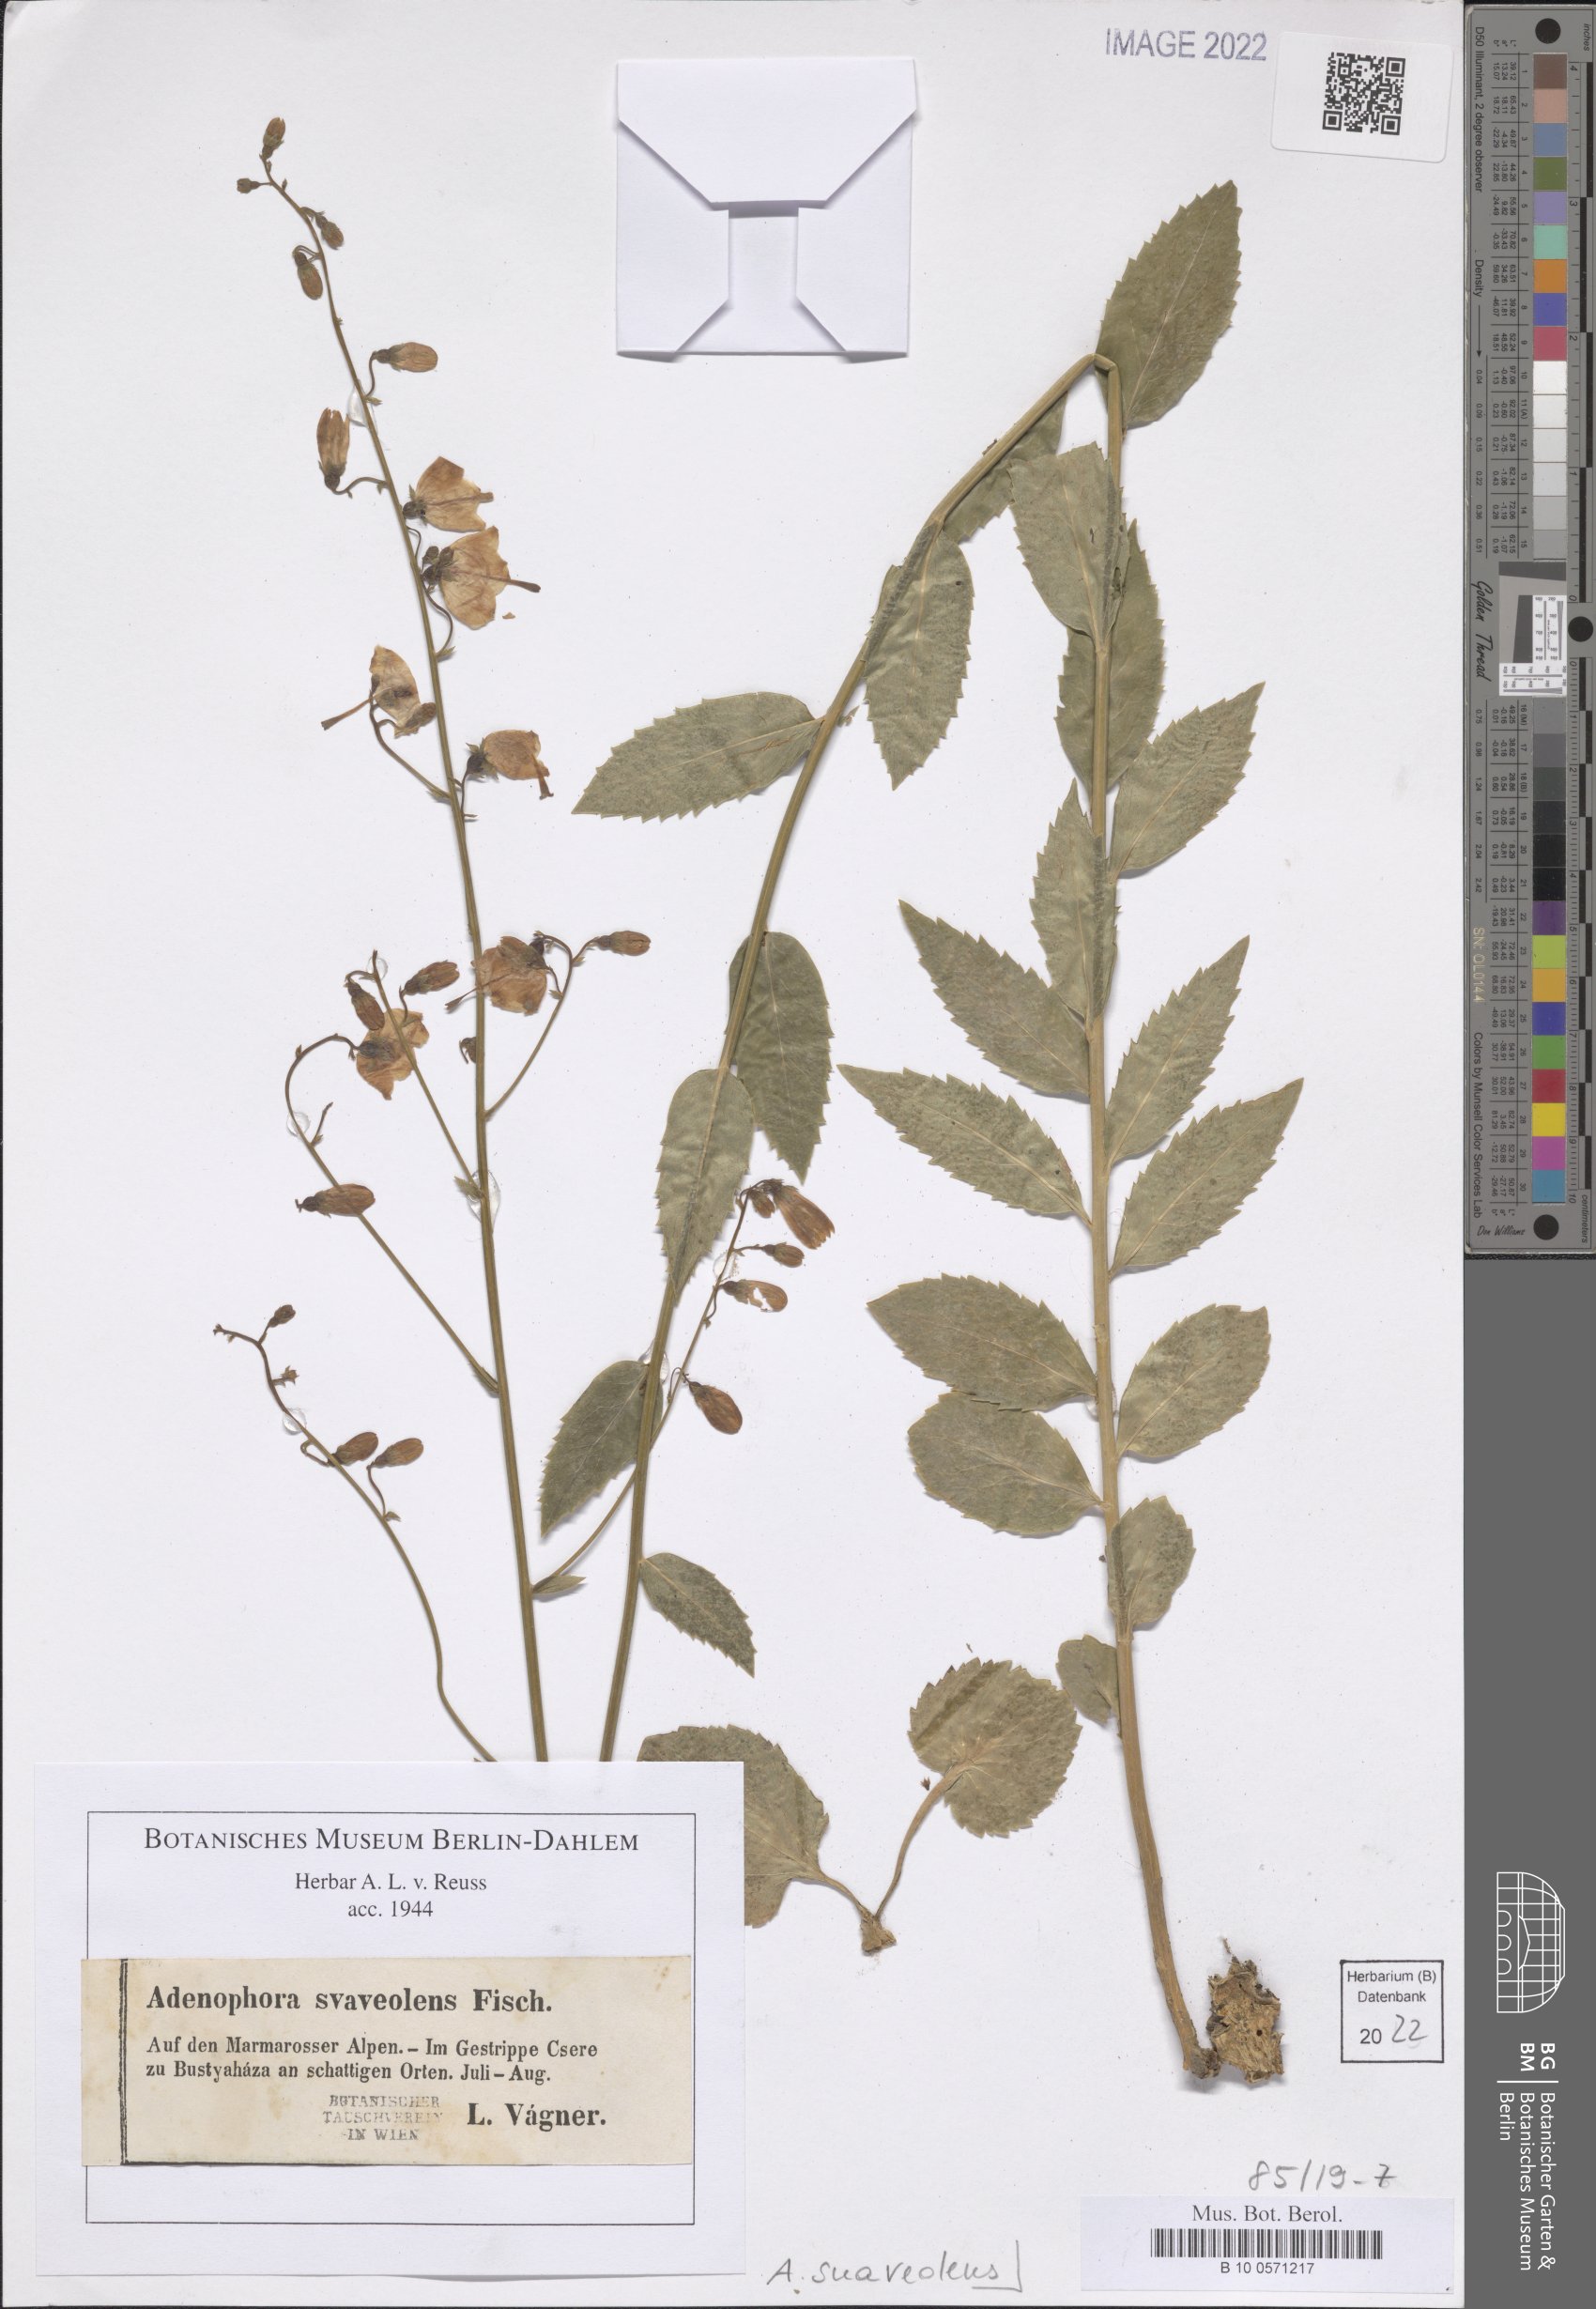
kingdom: Plantae
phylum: Tracheophyta
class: Magnoliopsida
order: Asterales
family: Campanulaceae
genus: Adenophora
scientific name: Adenophora liliifolia
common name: Lilyleaf ladybells
